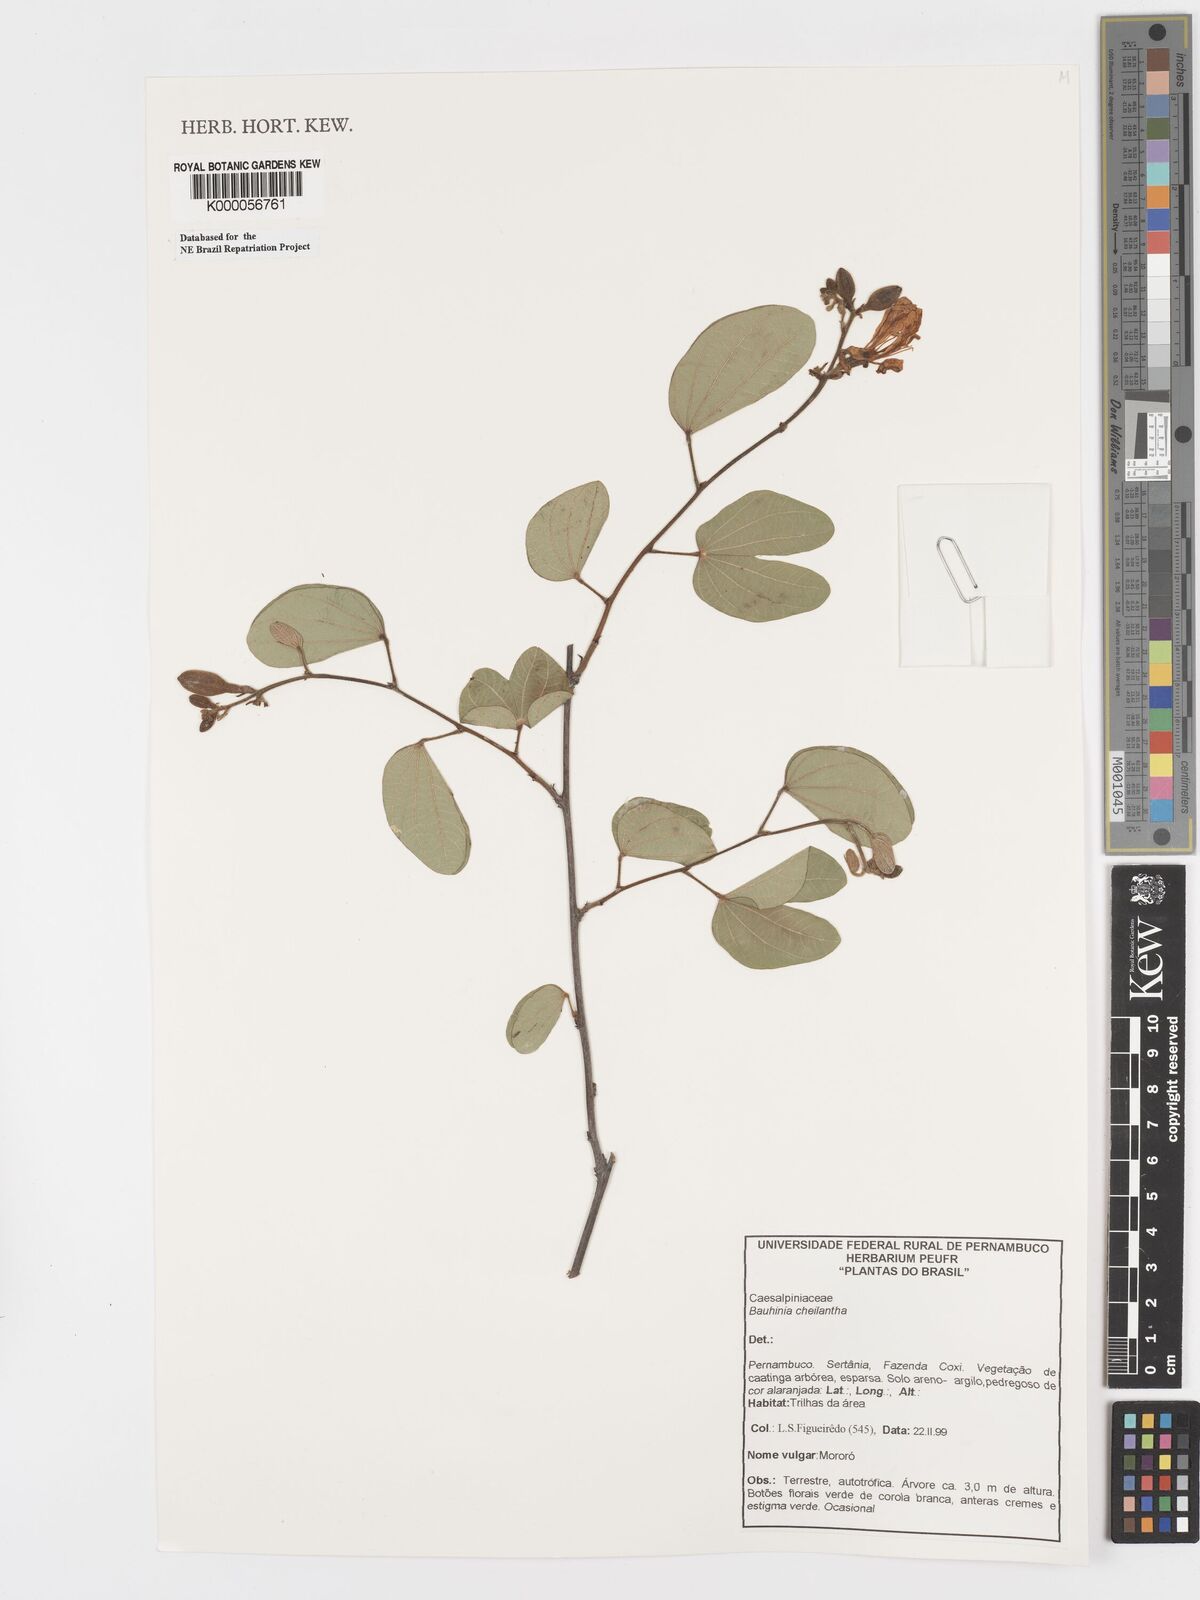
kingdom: Plantae
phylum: Tracheophyta
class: Magnoliopsida
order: Fabales
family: Fabaceae
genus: Bauhinia
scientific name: Bauhinia cheilantha
